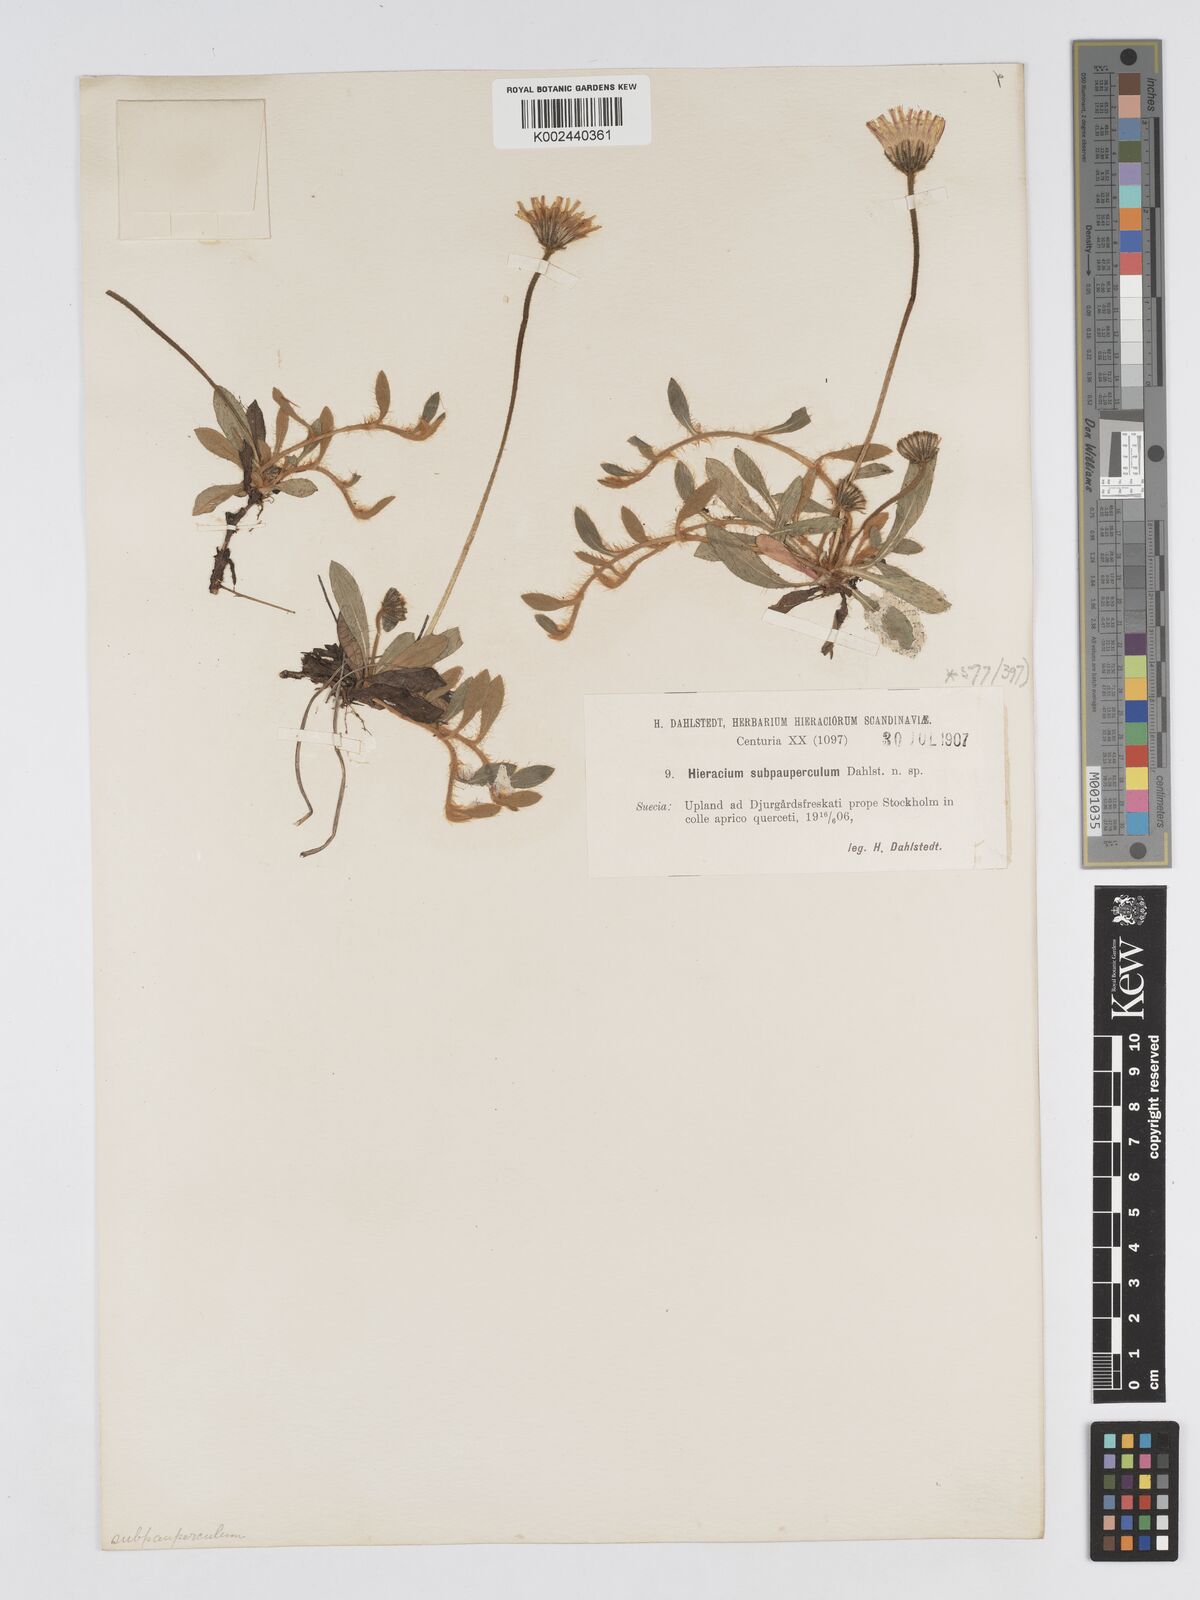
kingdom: Plantae
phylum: Tracheophyta
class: Magnoliopsida
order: Asterales
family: Asteraceae
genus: Pilosella
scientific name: Pilosella officinarum
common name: Mouse-ear hawkweed
